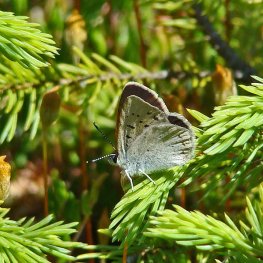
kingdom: Animalia
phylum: Arthropoda
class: Insecta
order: Lepidoptera
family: Sesiidae
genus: Sesia
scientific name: Sesia Lycaena epixanthe
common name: Bog Copper
